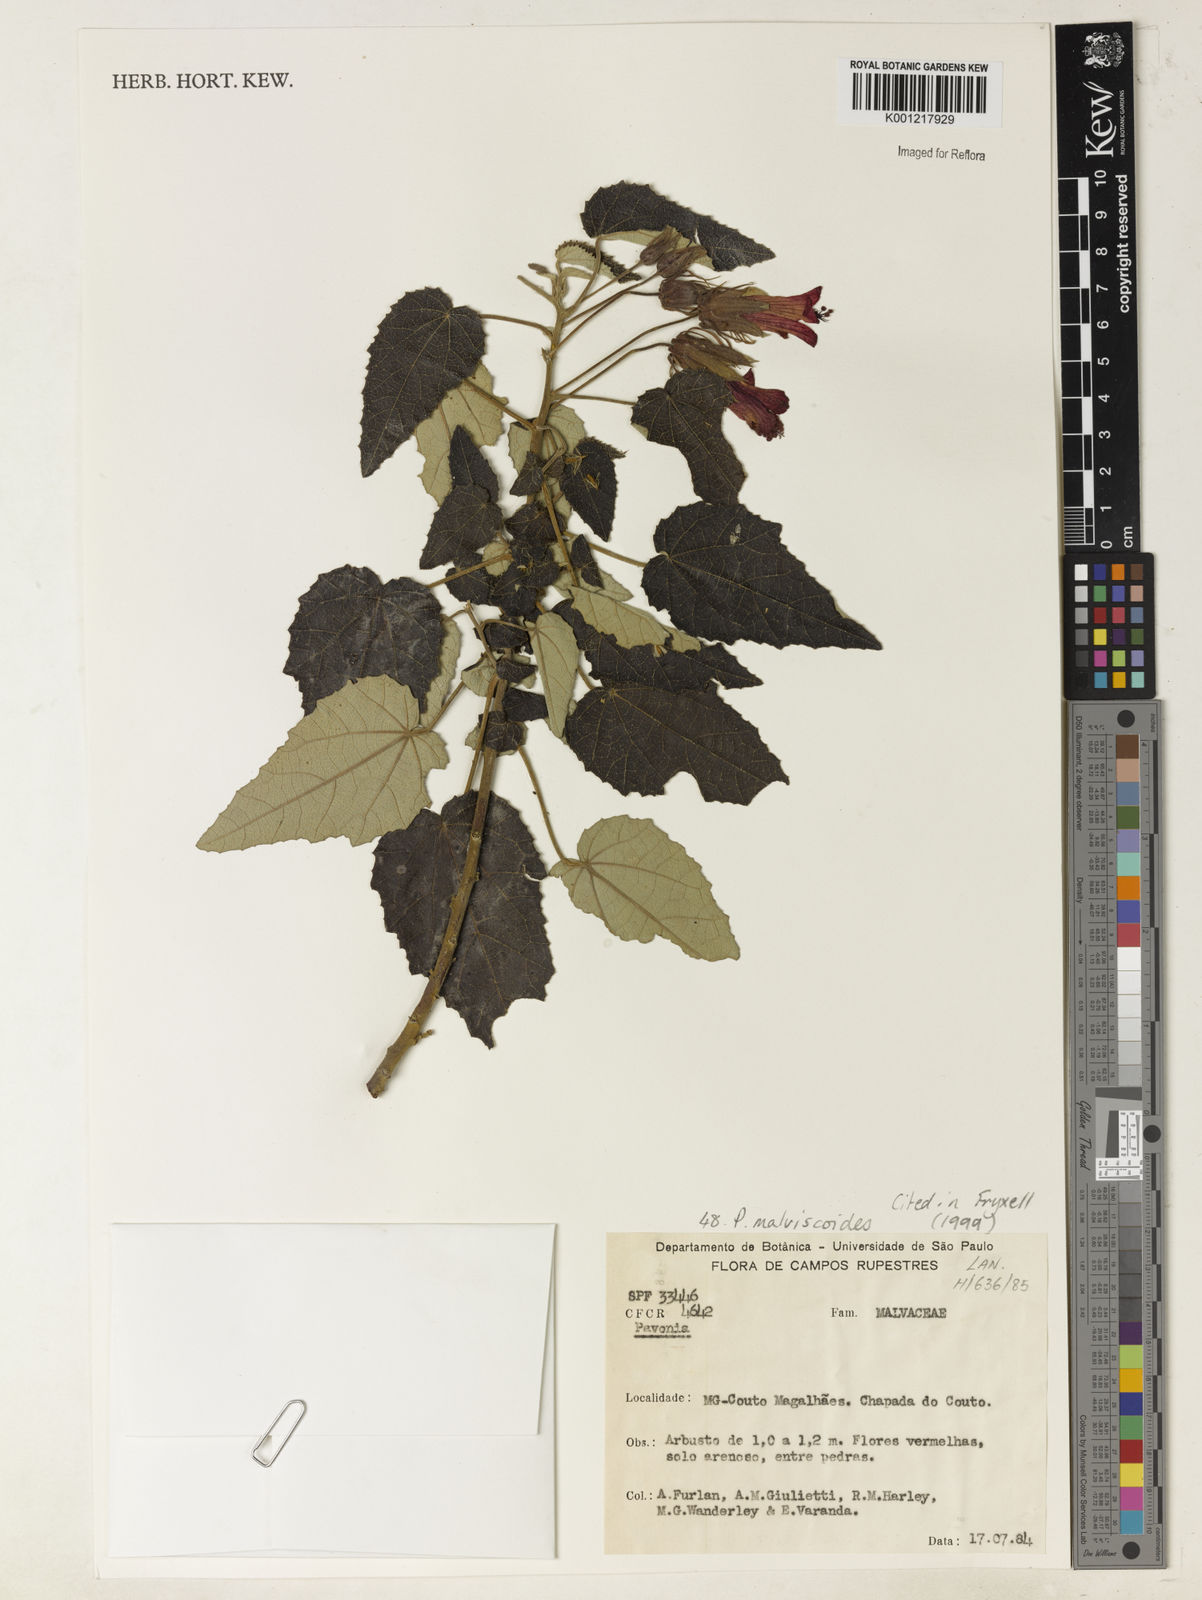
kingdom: Plantae
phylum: Tracheophyta
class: Magnoliopsida
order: Malvales
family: Malvaceae
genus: Pavonia
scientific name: Pavonia malvaviscoides
